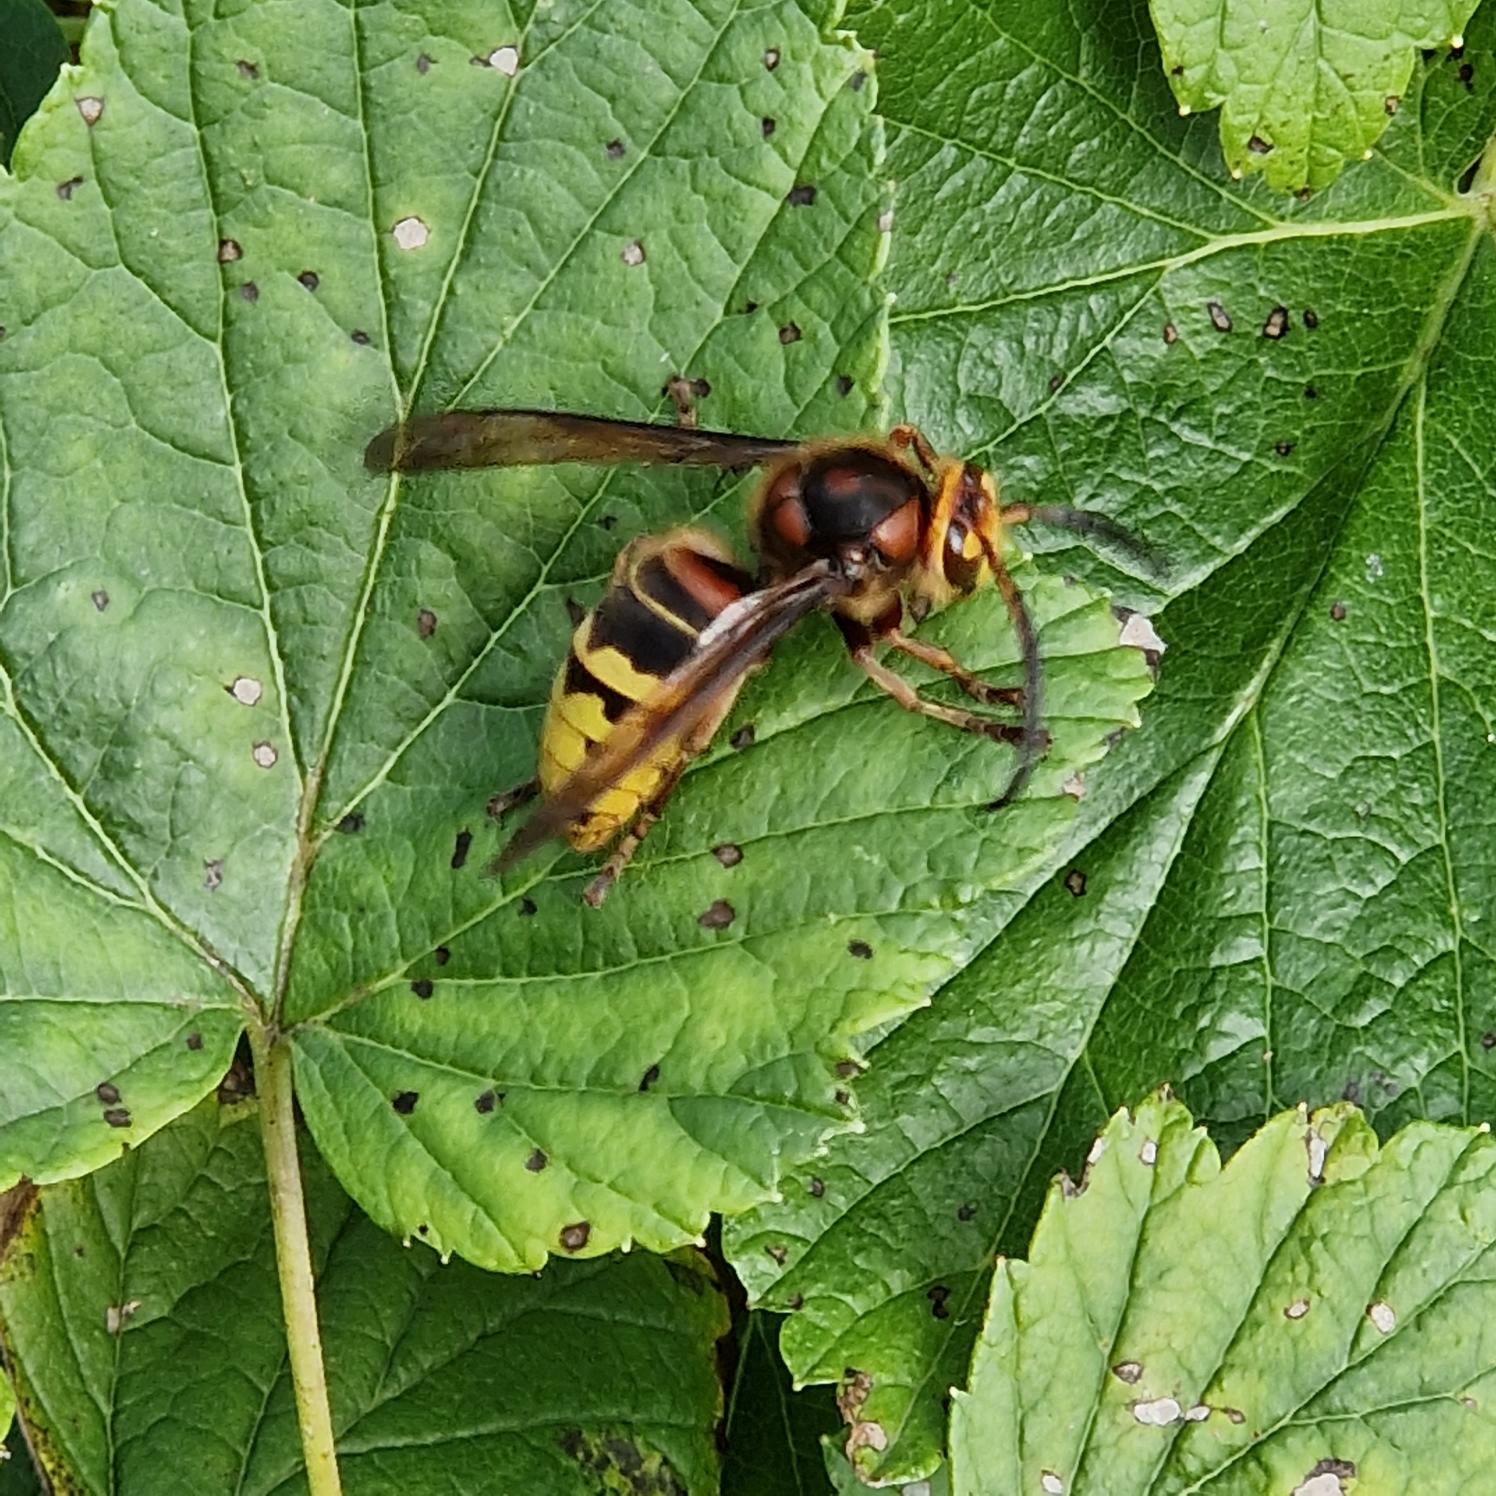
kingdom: Animalia
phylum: Arthropoda
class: Insecta
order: Hymenoptera
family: Vespidae
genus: Vespa
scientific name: Vespa crabro
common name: Stor gedehams
